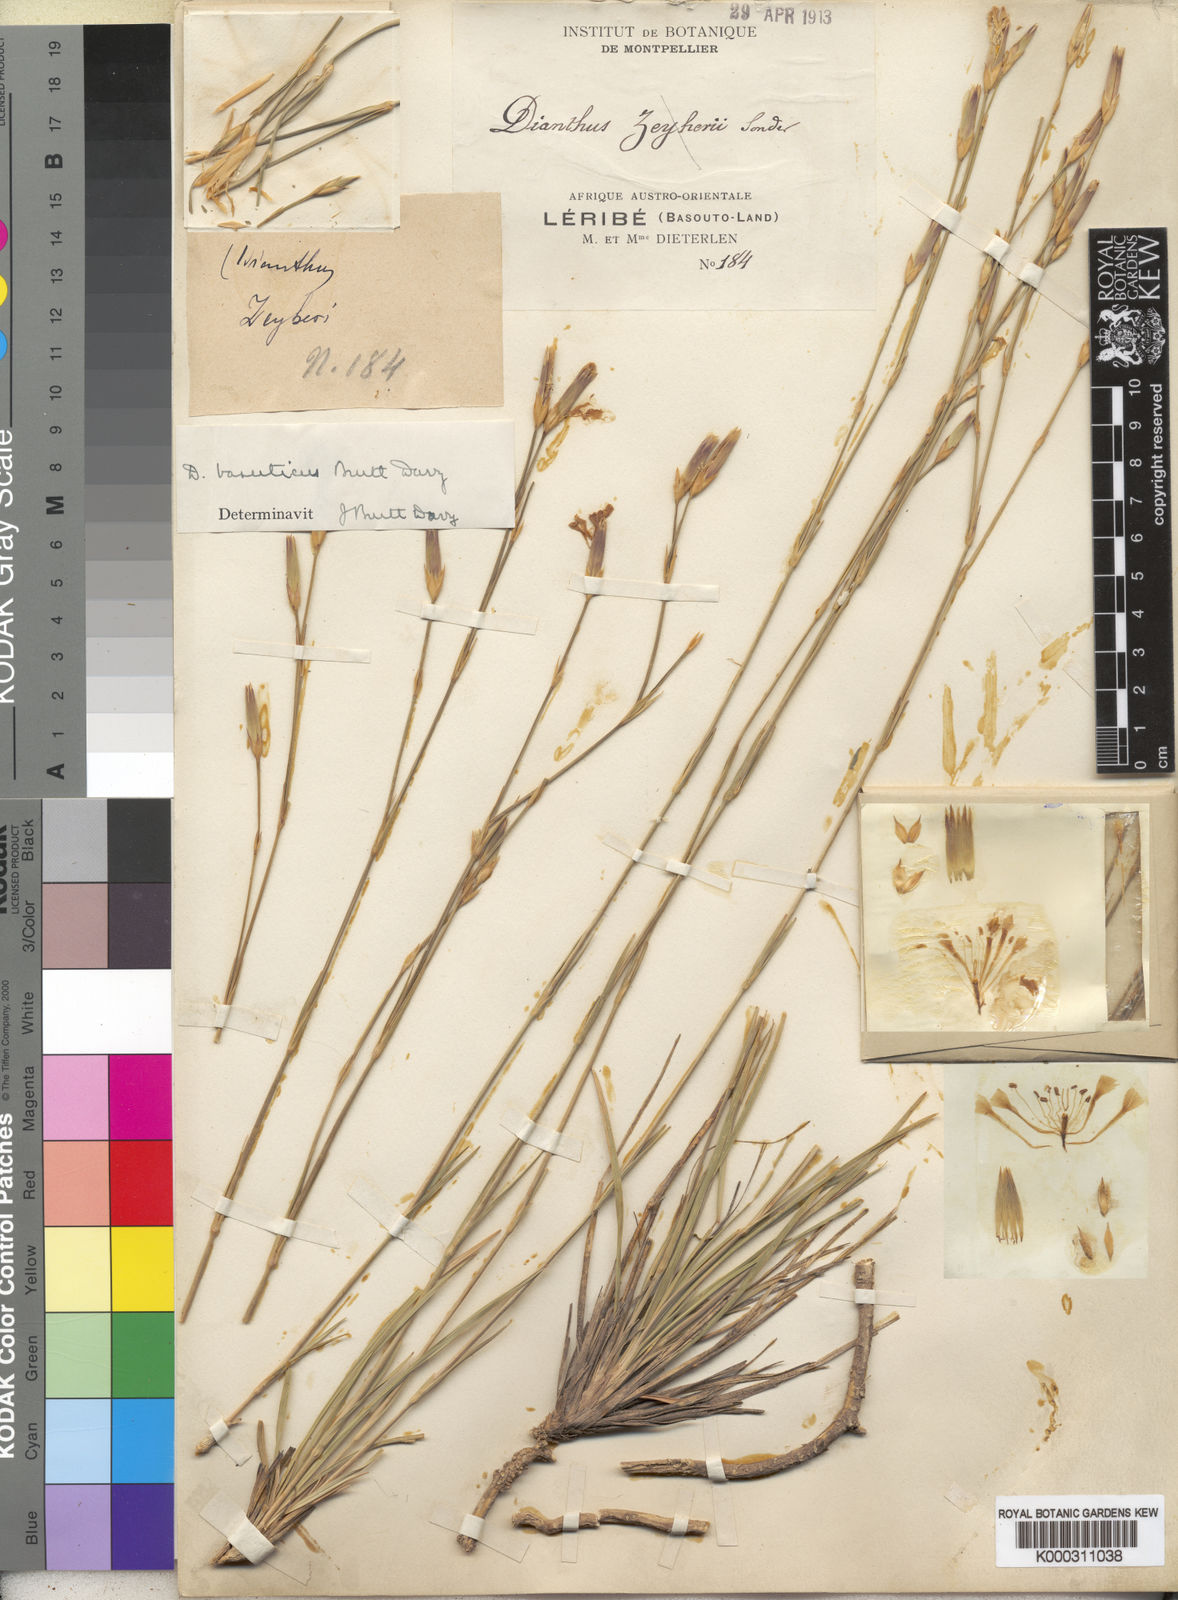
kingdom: Plantae
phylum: Tracheophyta
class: Magnoliopsida
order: Caryophyllales
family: Caryophyllaceae
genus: Dianthus
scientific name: Dianthus basuticus
